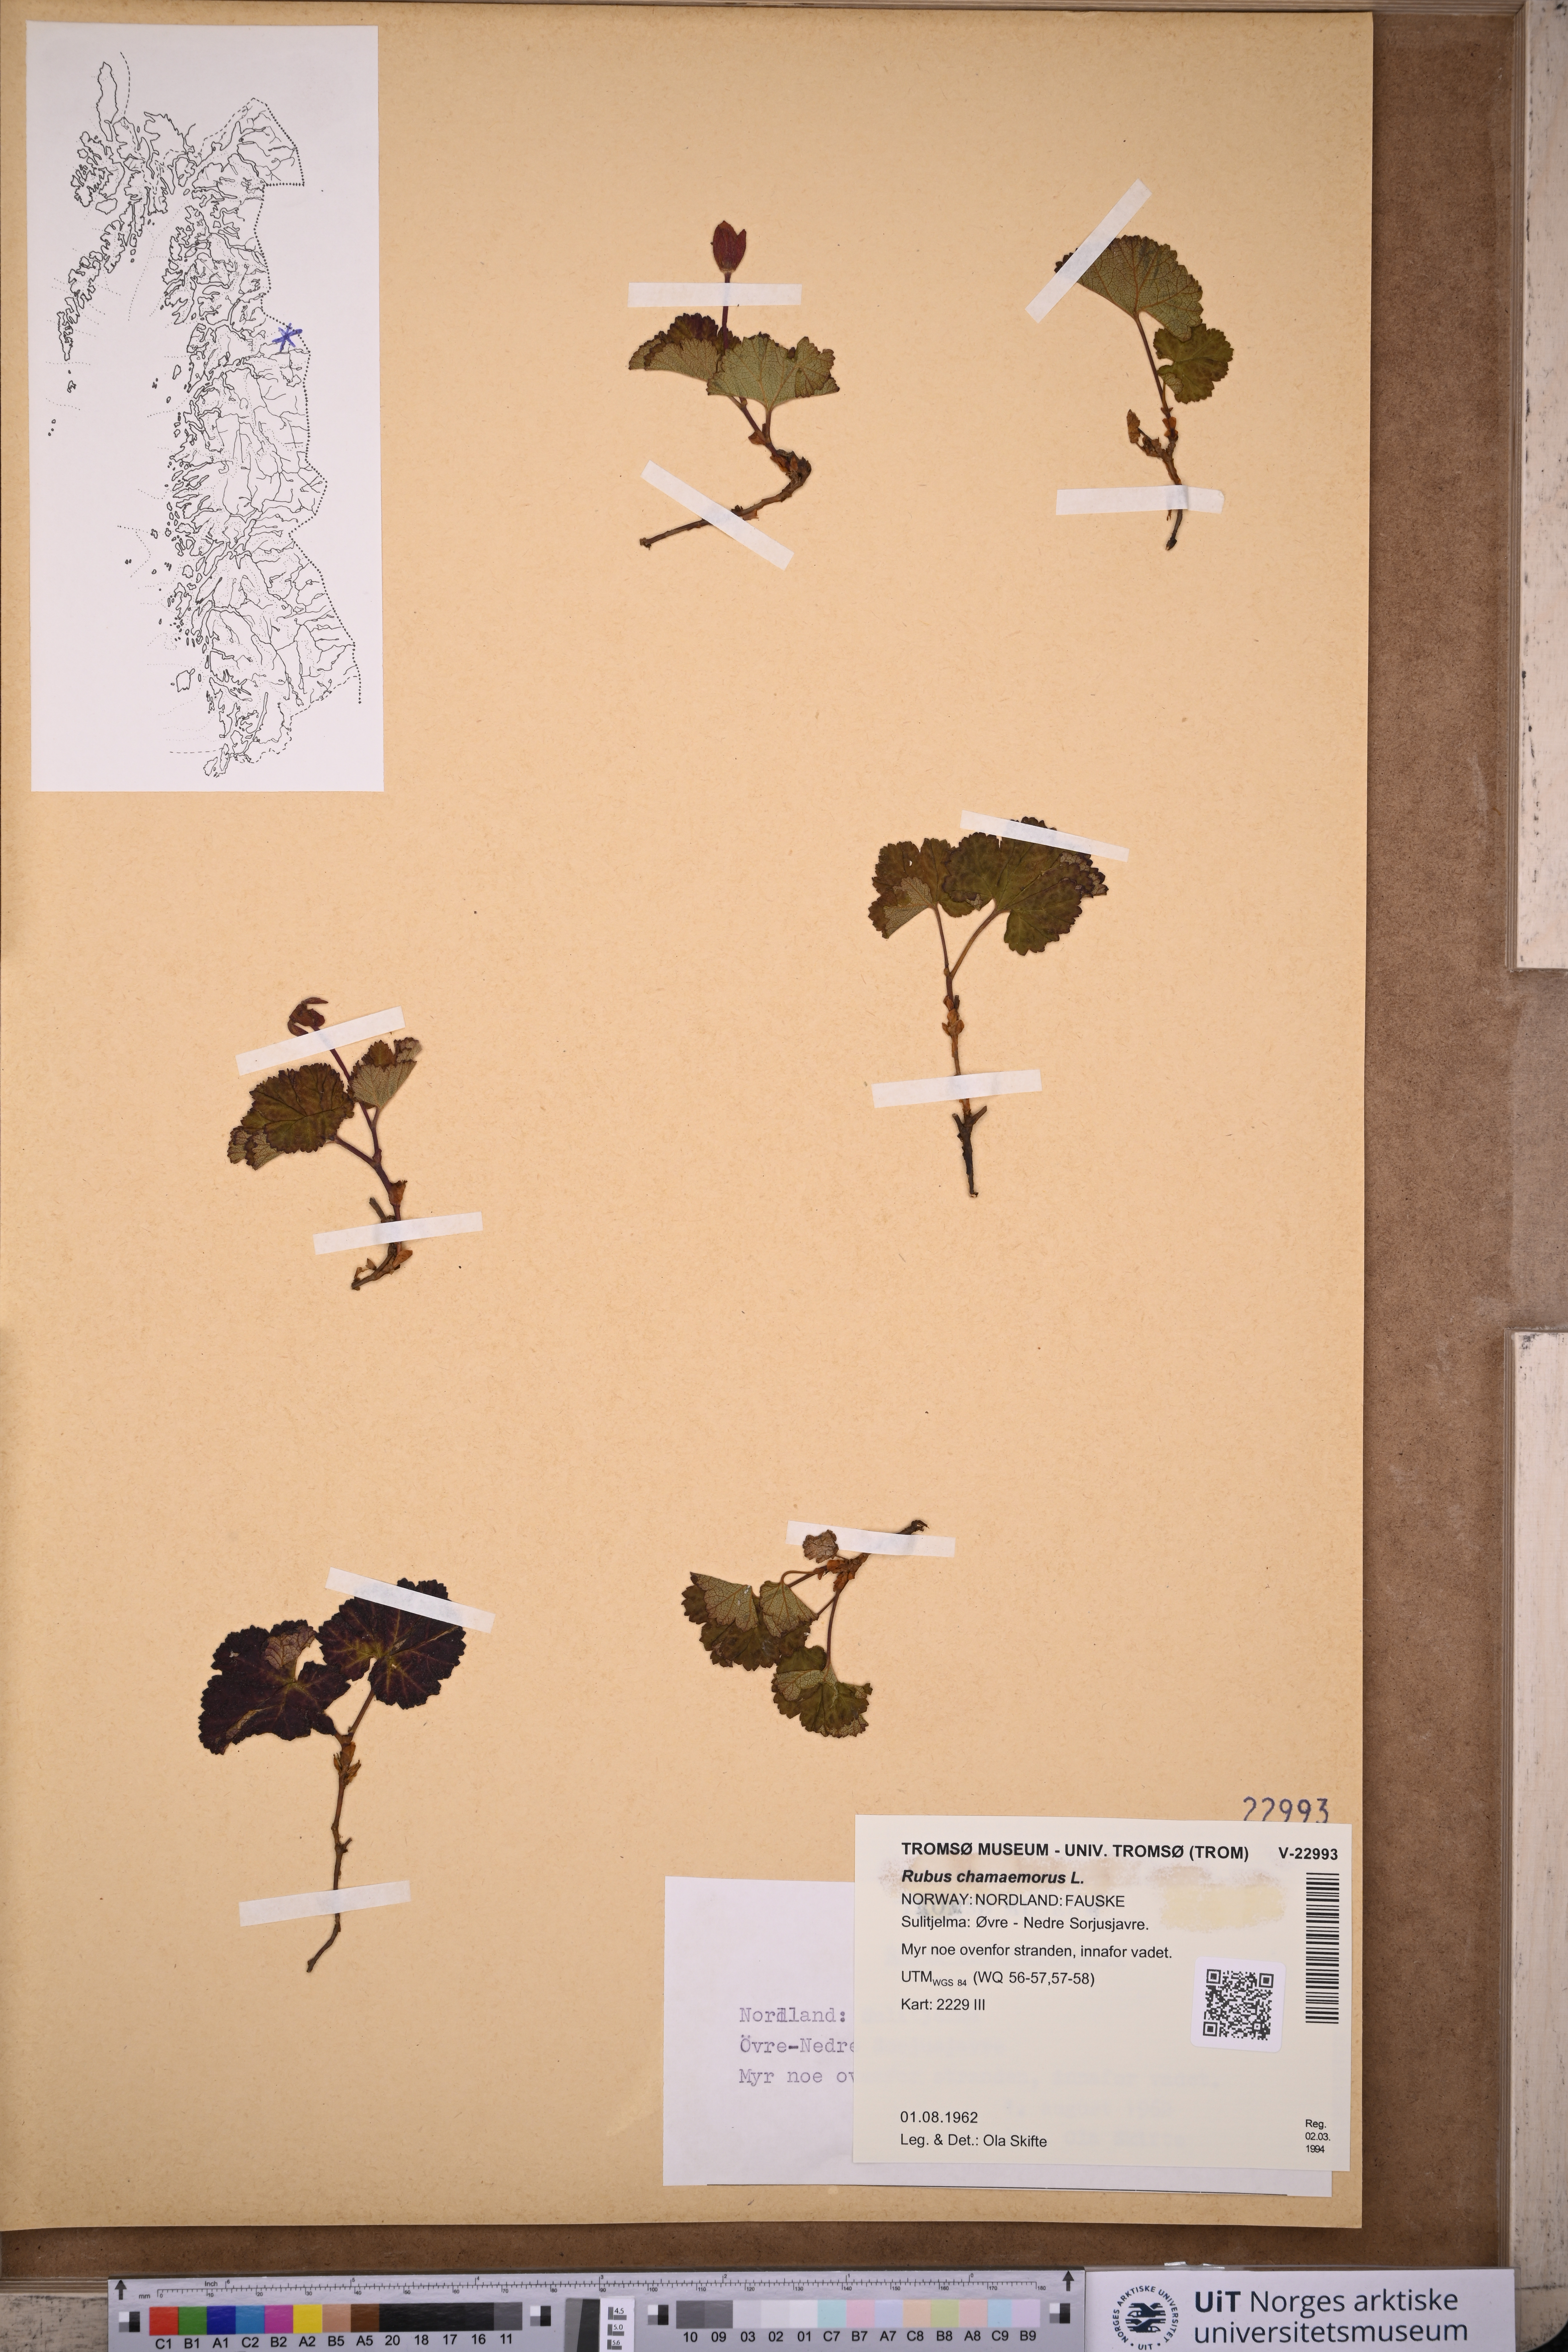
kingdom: Plantae
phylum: Tracheophyta
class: Magnoliopsida
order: Rosales
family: Rosaceae
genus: Rubus
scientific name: Rubus chamaemorus
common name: Cloudberry
